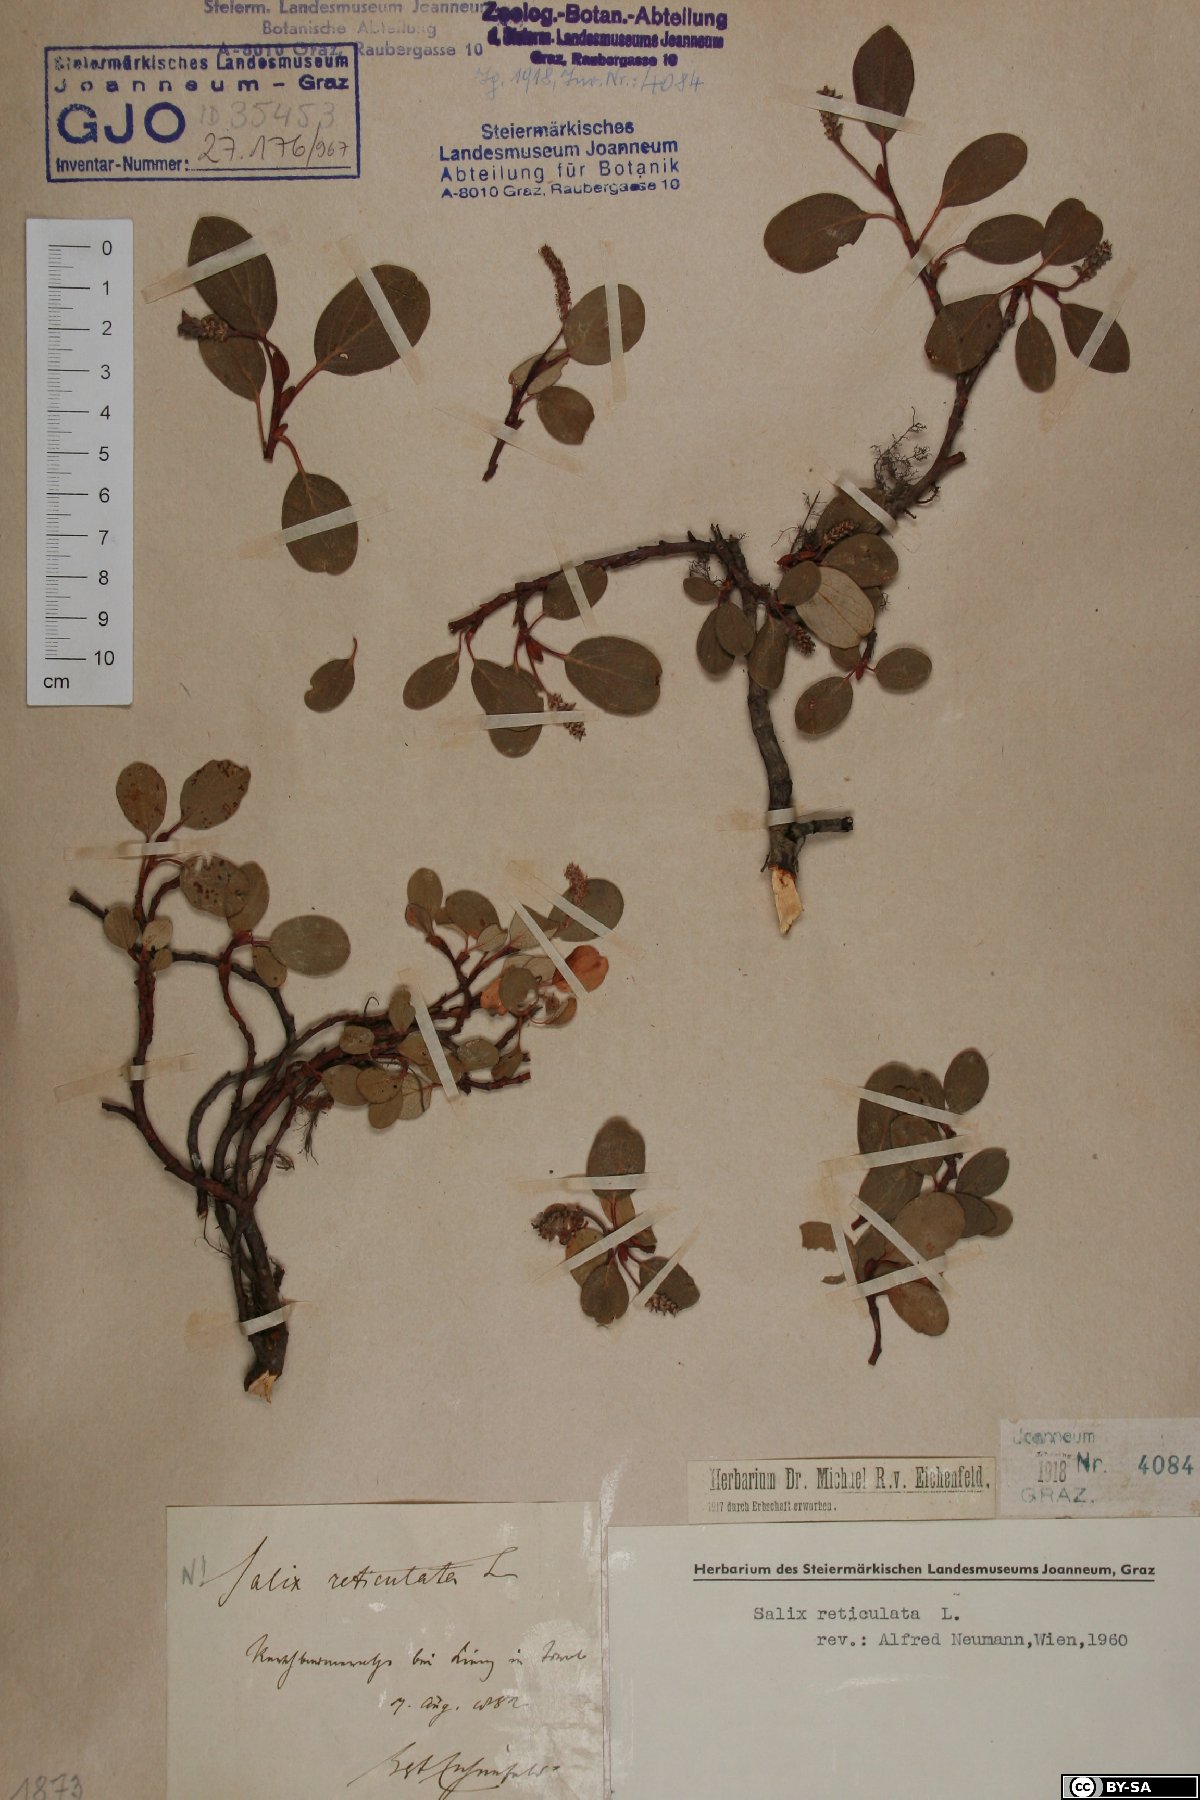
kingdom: Plantae
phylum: Tracheophyta
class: Magnoliopsida
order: Malpighiales
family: Salicaceae
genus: Salix
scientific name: Salix reticulata
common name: Net-leaved willow
